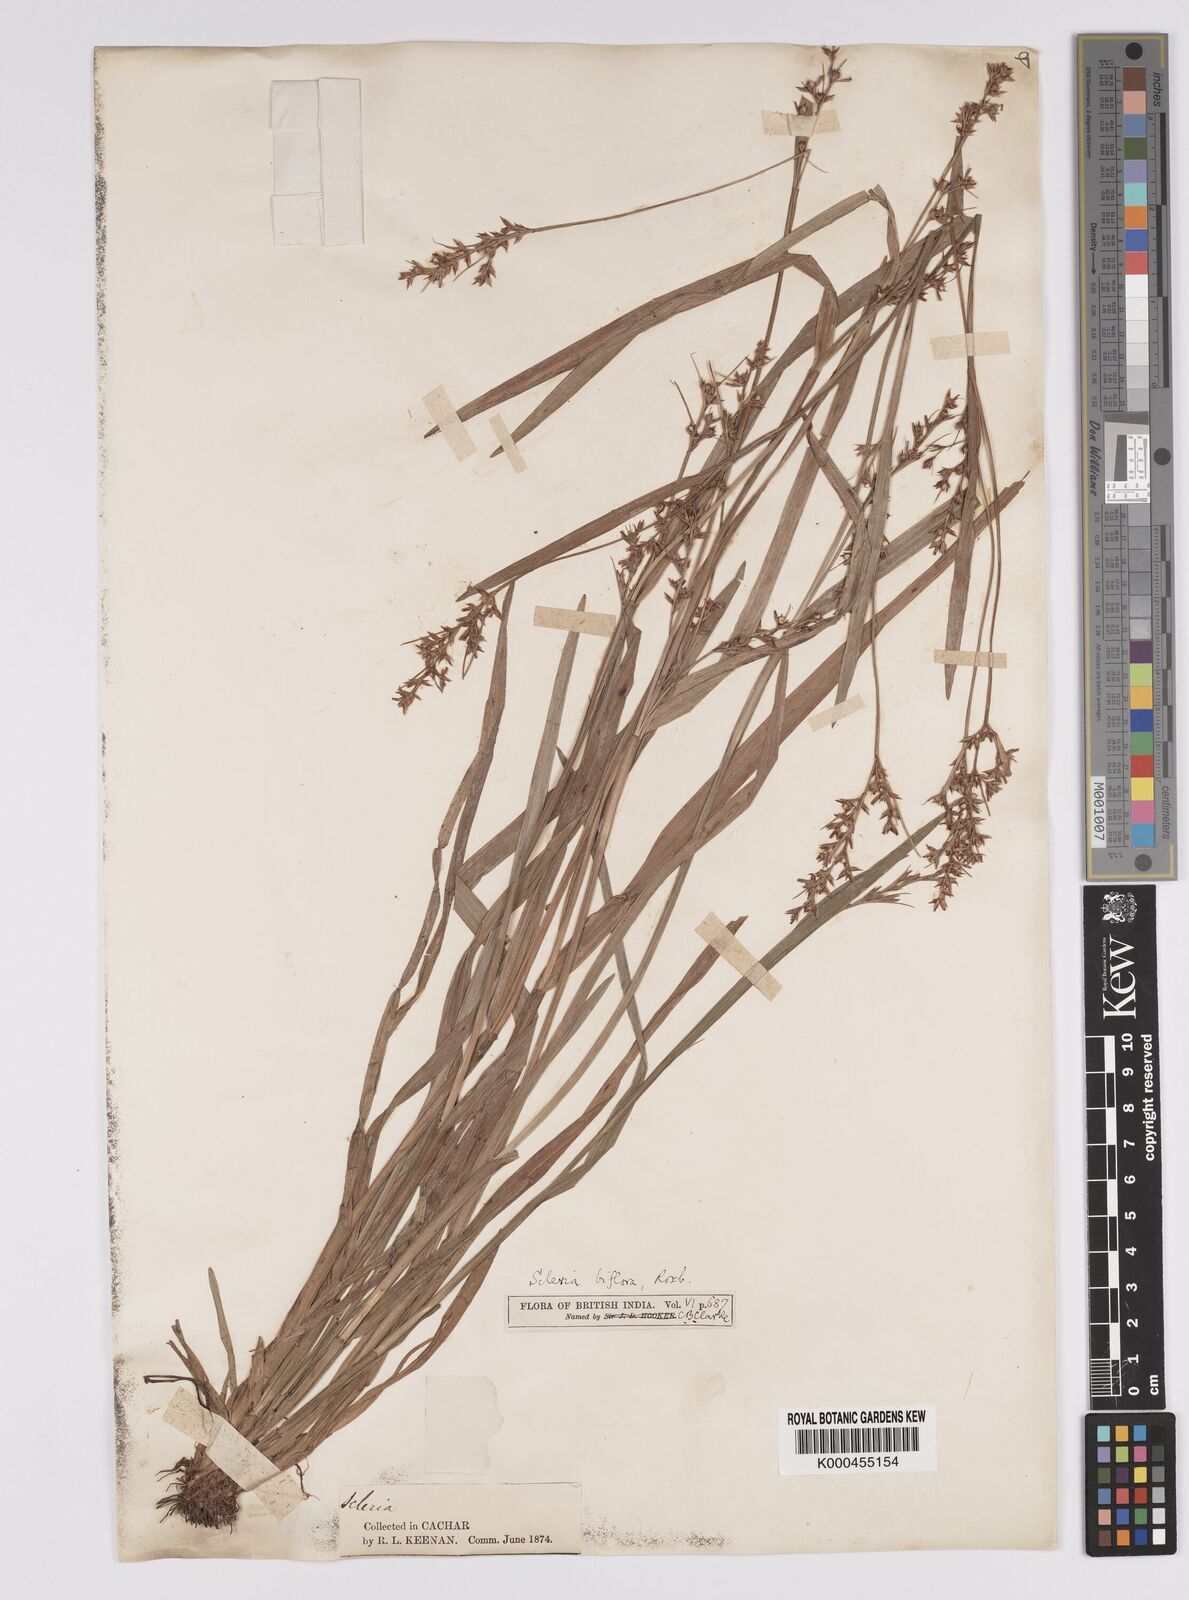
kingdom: Plantae
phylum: Tracheophyta
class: Liliopsida
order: Poales
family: Cyperaceae
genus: Scleria
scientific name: Scleria biflora
